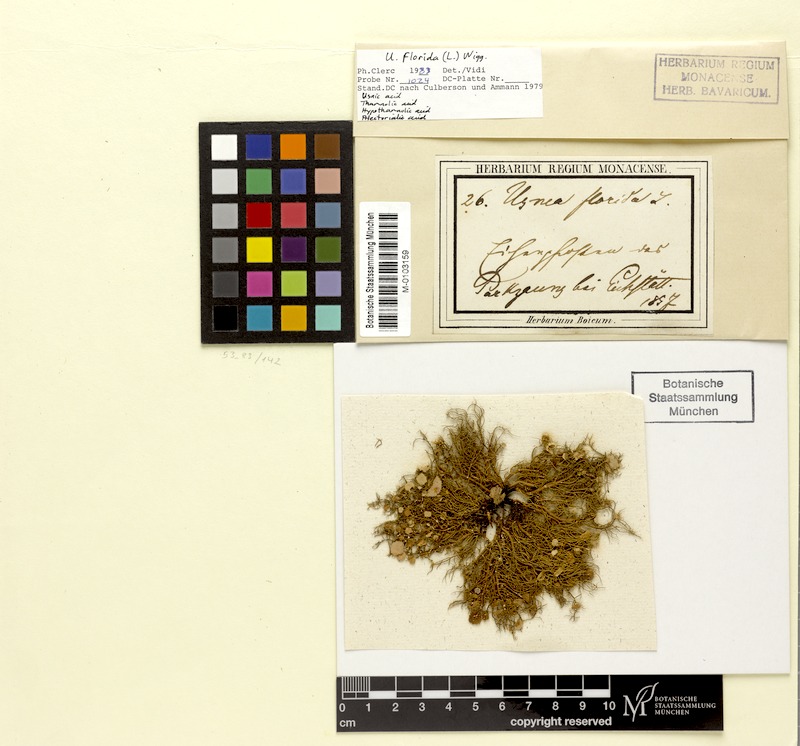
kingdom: Fungi
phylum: Ascomycota
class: Lecanoromycetes
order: Lecanorales
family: Parmeliaceae
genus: Usnea
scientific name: Usnea florida
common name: Witches' whiskers lichen
